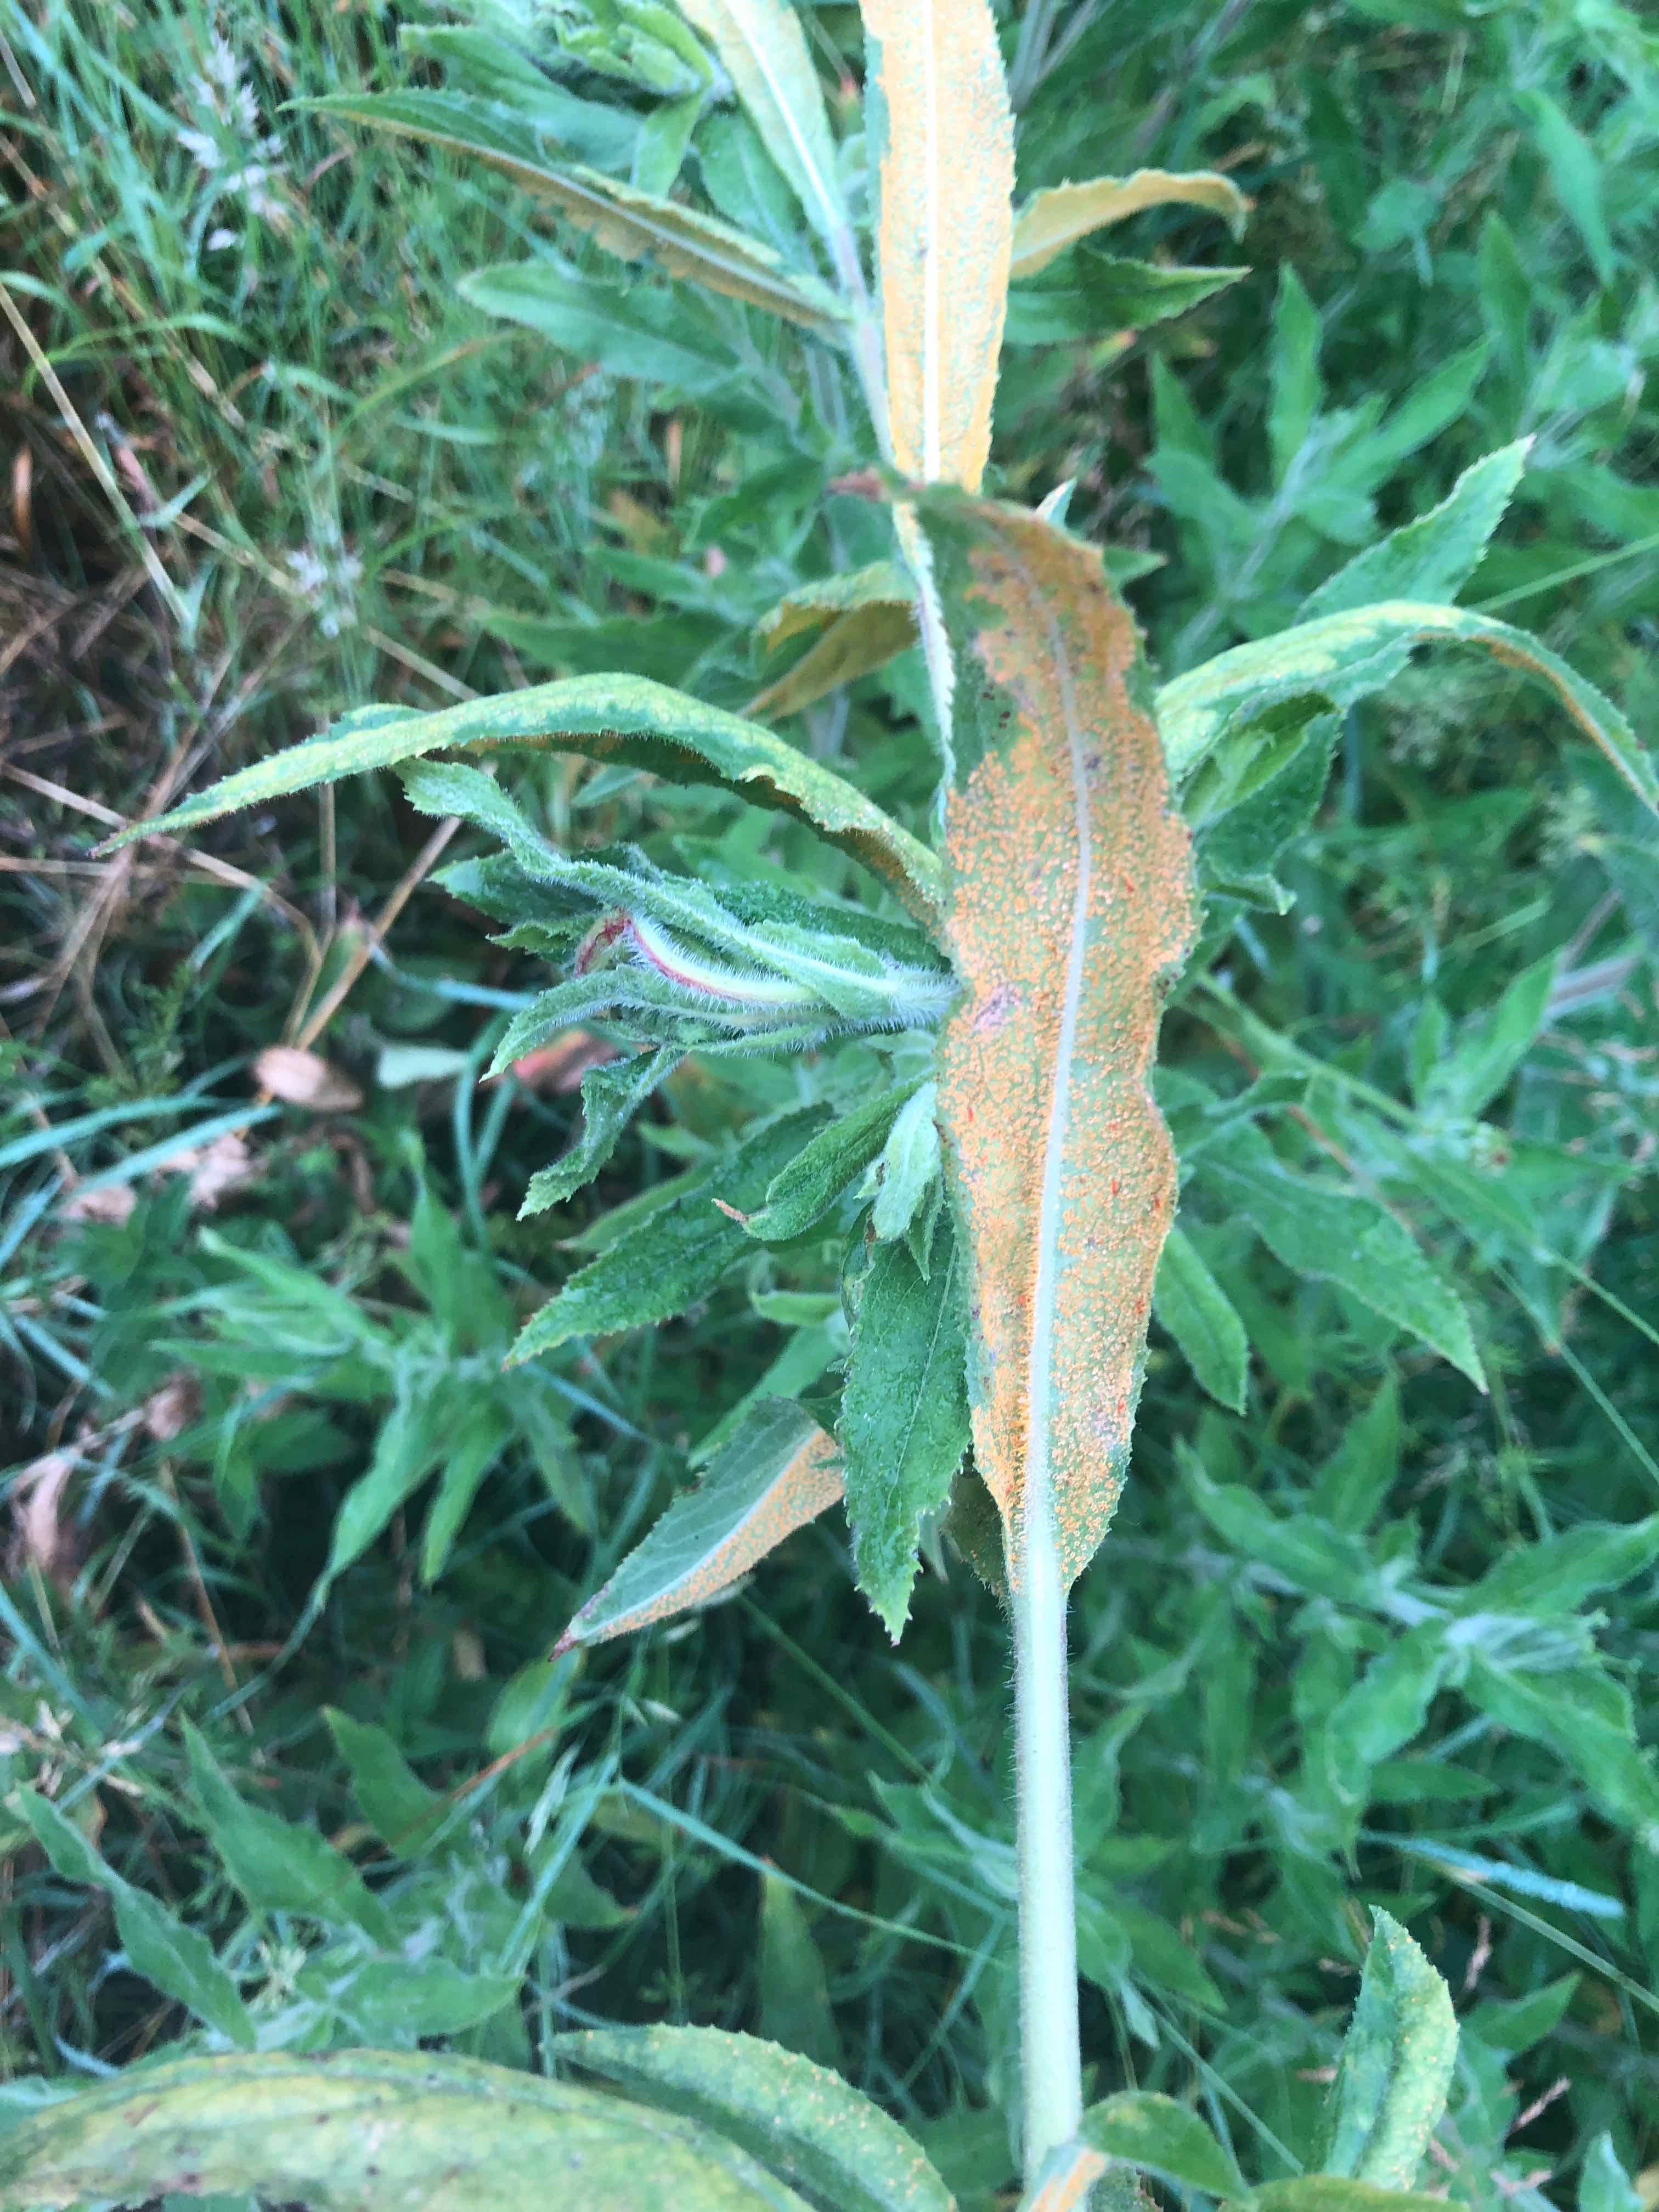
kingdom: Fungi
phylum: Basidiomycota
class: Pucciniomycetes
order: Pucciniales
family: Pucciniaceae
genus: Puccinia
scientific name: Puccinia pulverulenta
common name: dueurt-tvecellerust
